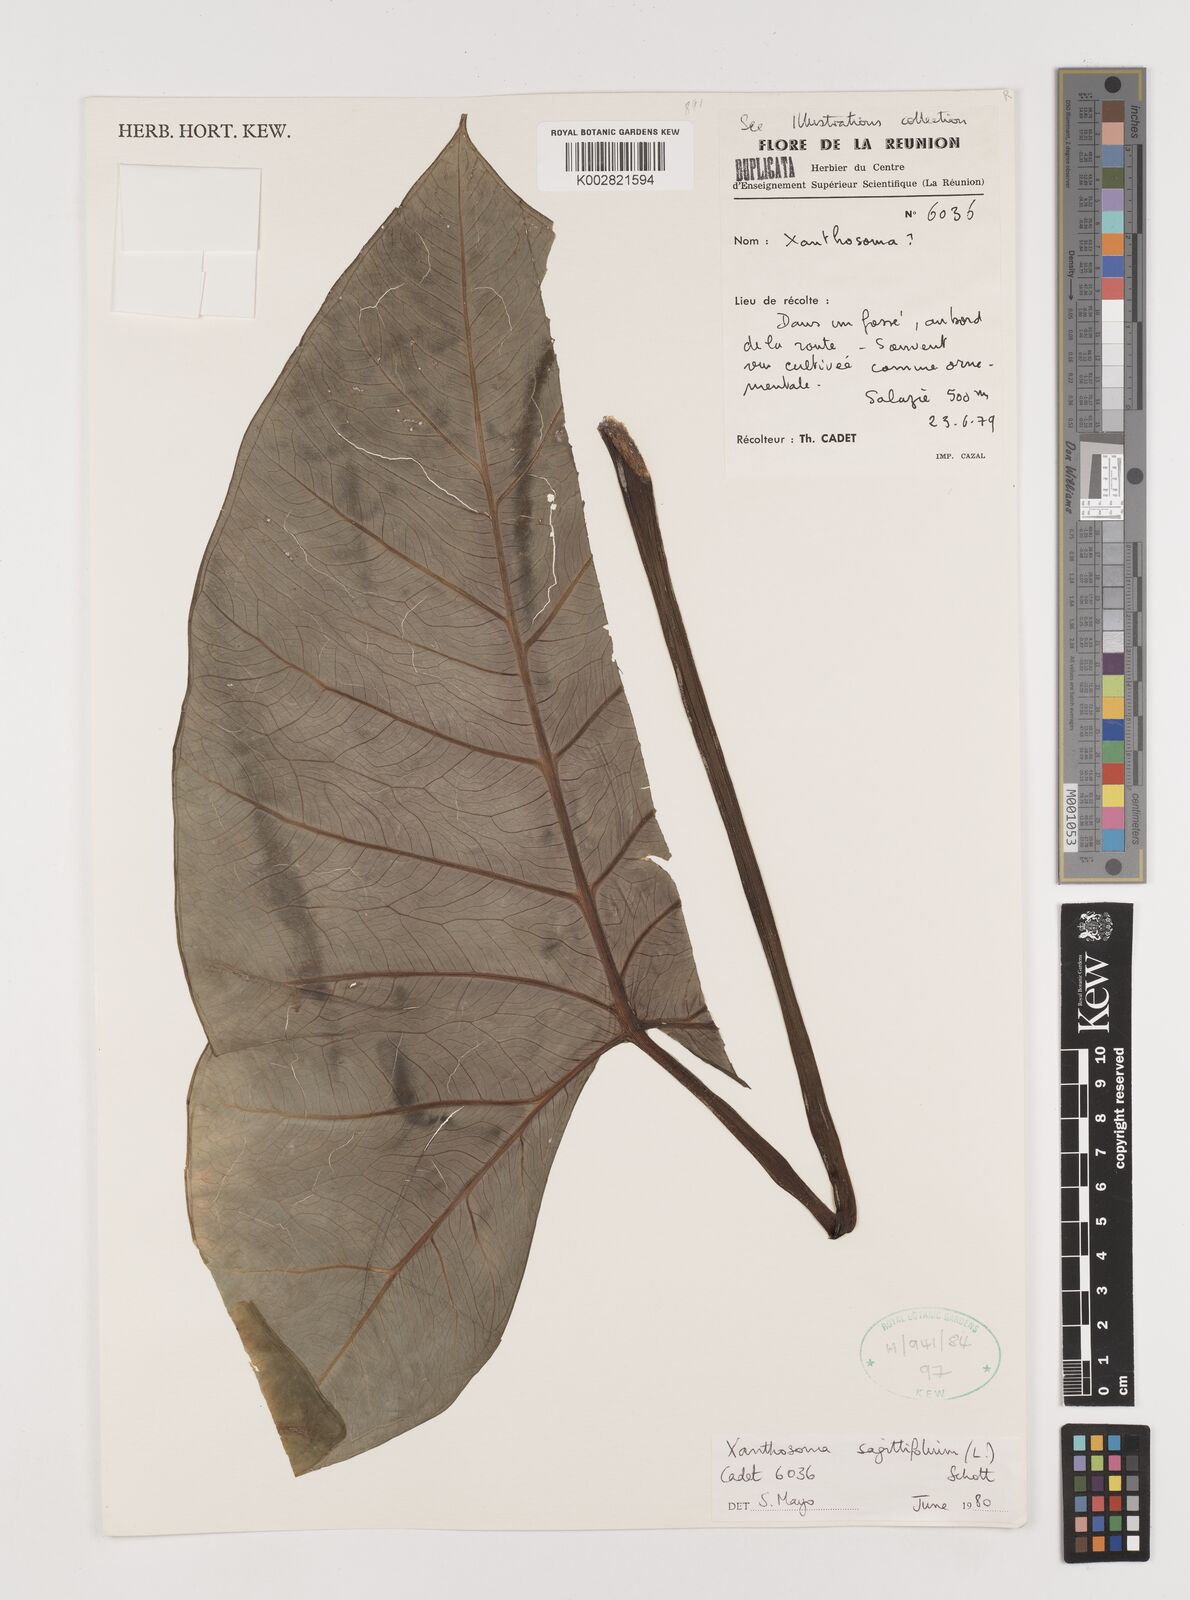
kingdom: Plantae
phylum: Tracheophyta
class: Liliopsida
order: Alismatales
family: Araceae
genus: Xanthosoma
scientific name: Xanthosoma sagittifolium
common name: Arrowleaf elephant's ear
